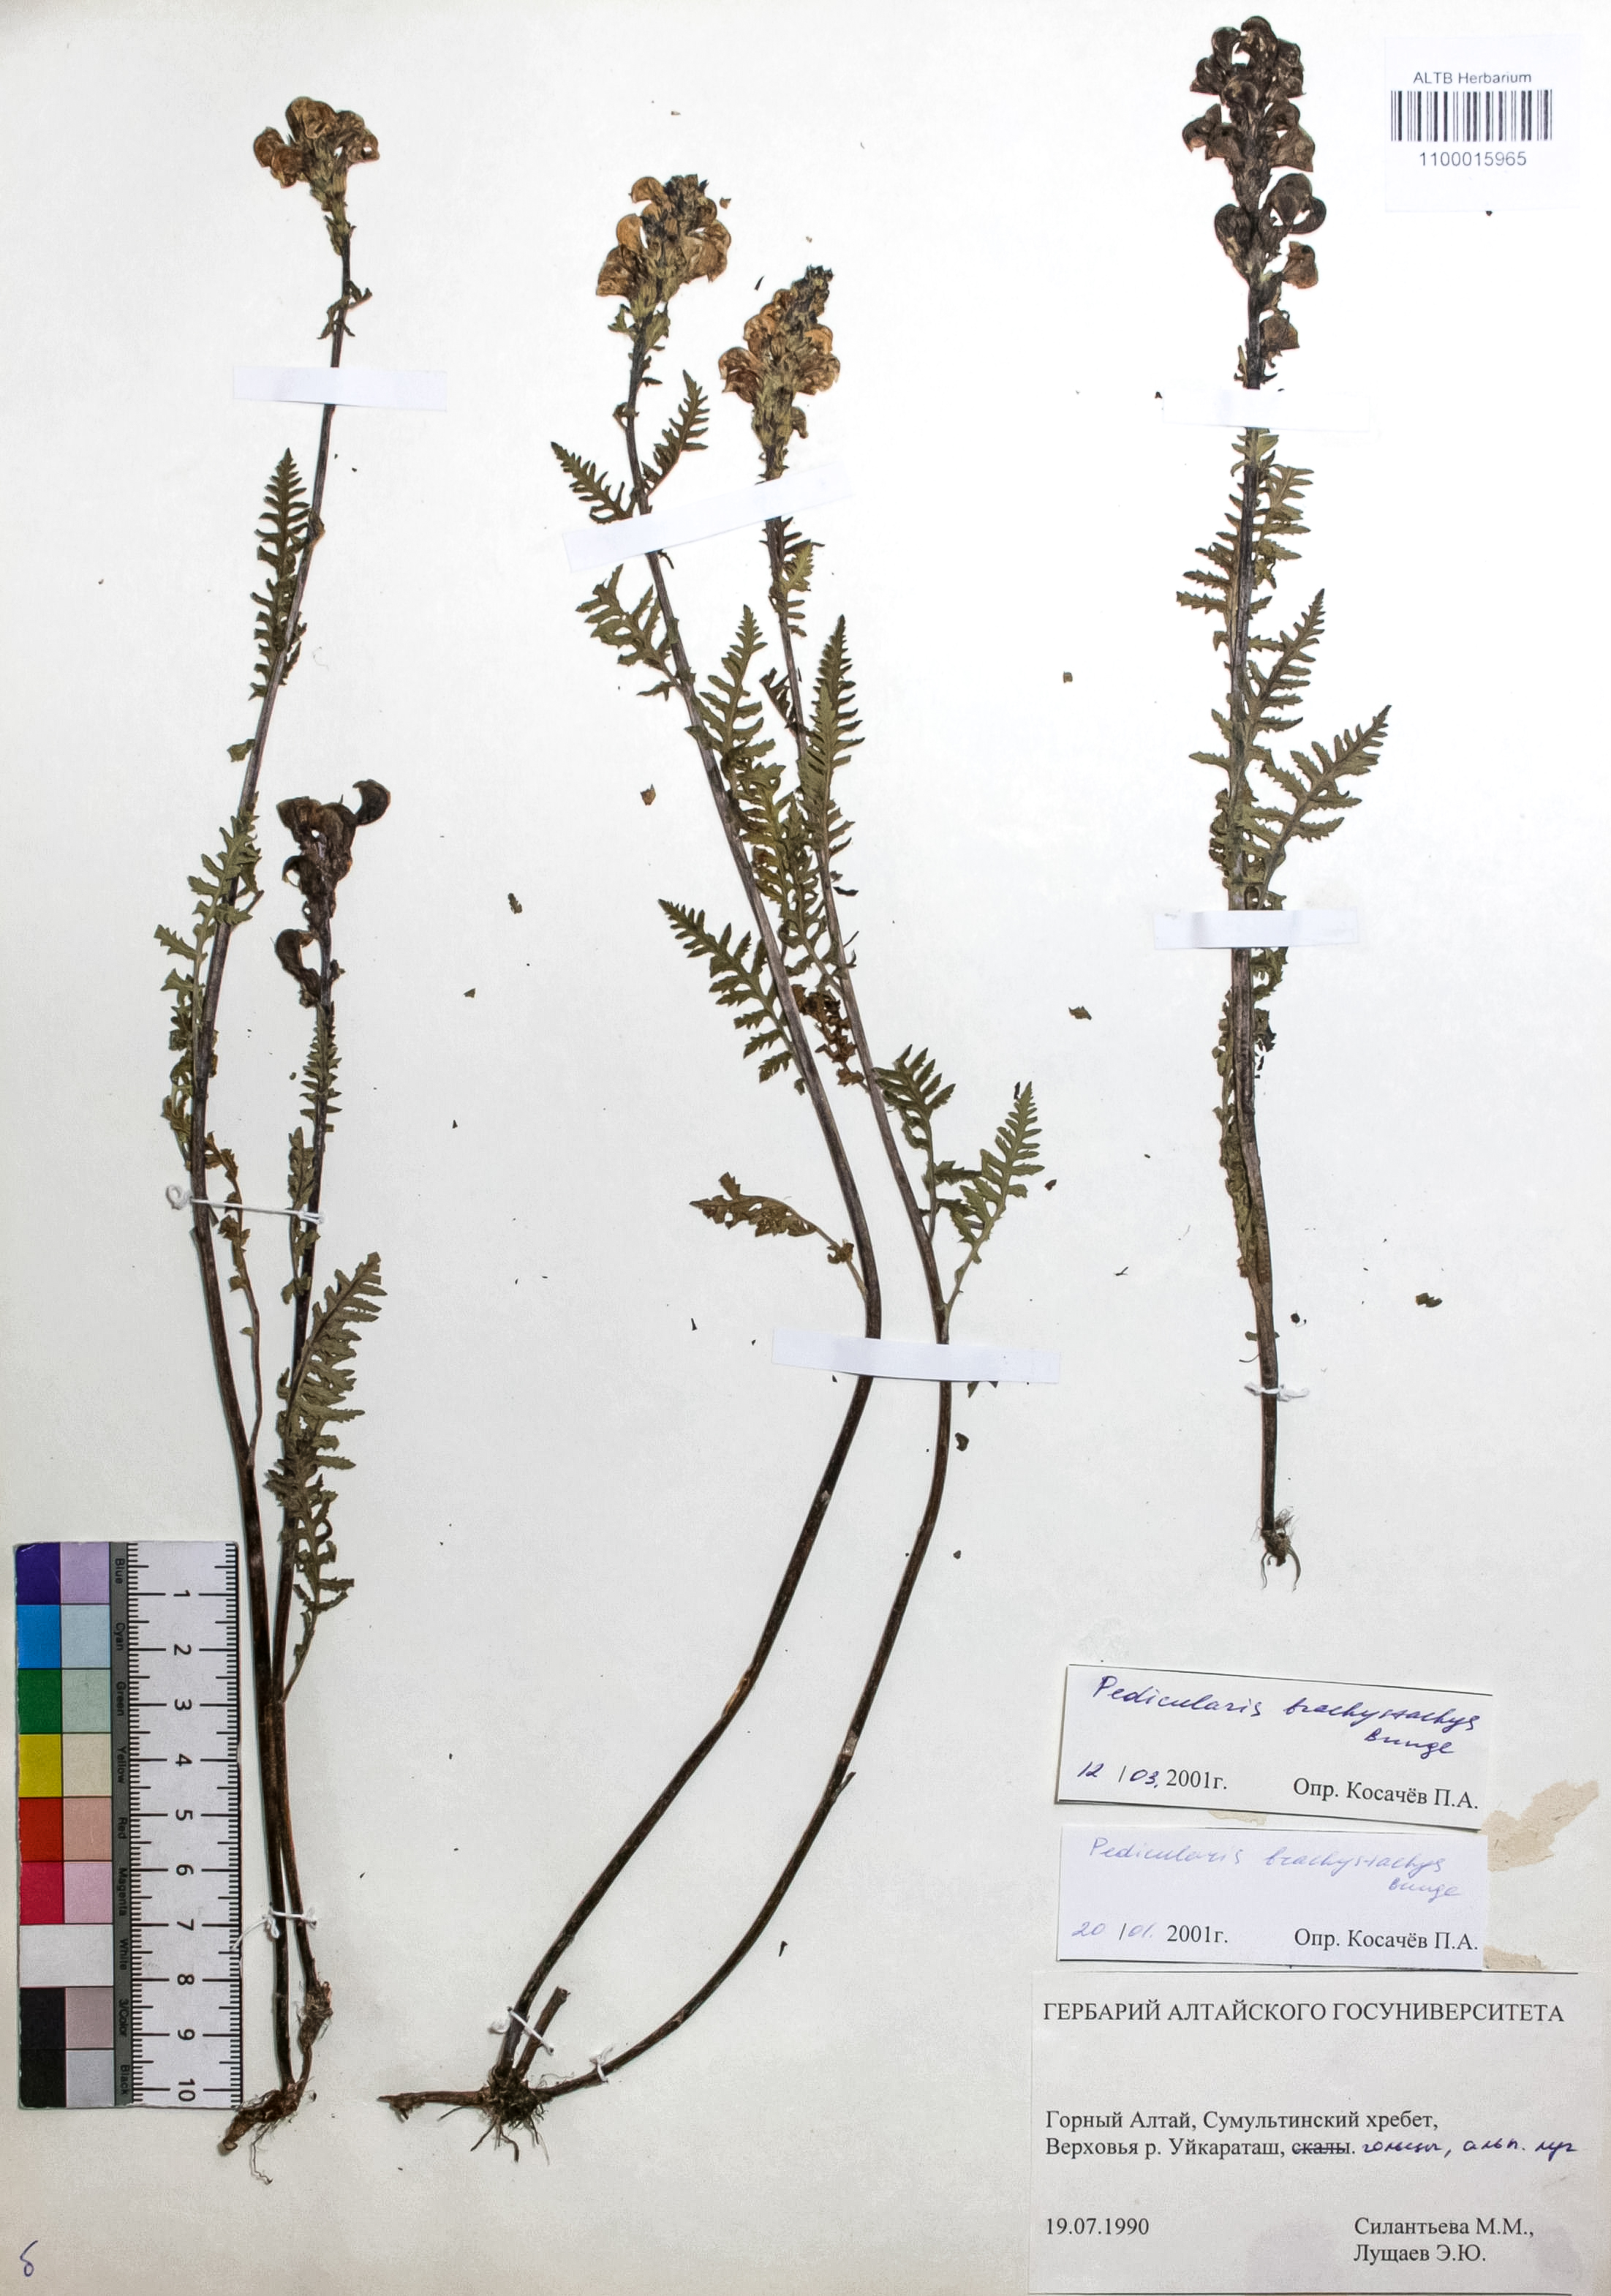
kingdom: Plantae
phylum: Tracheophyta
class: Magnoliopsida
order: Lamiales
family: Orobanchaceae
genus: Pedicularis
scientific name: Pedicularis brachystachys
